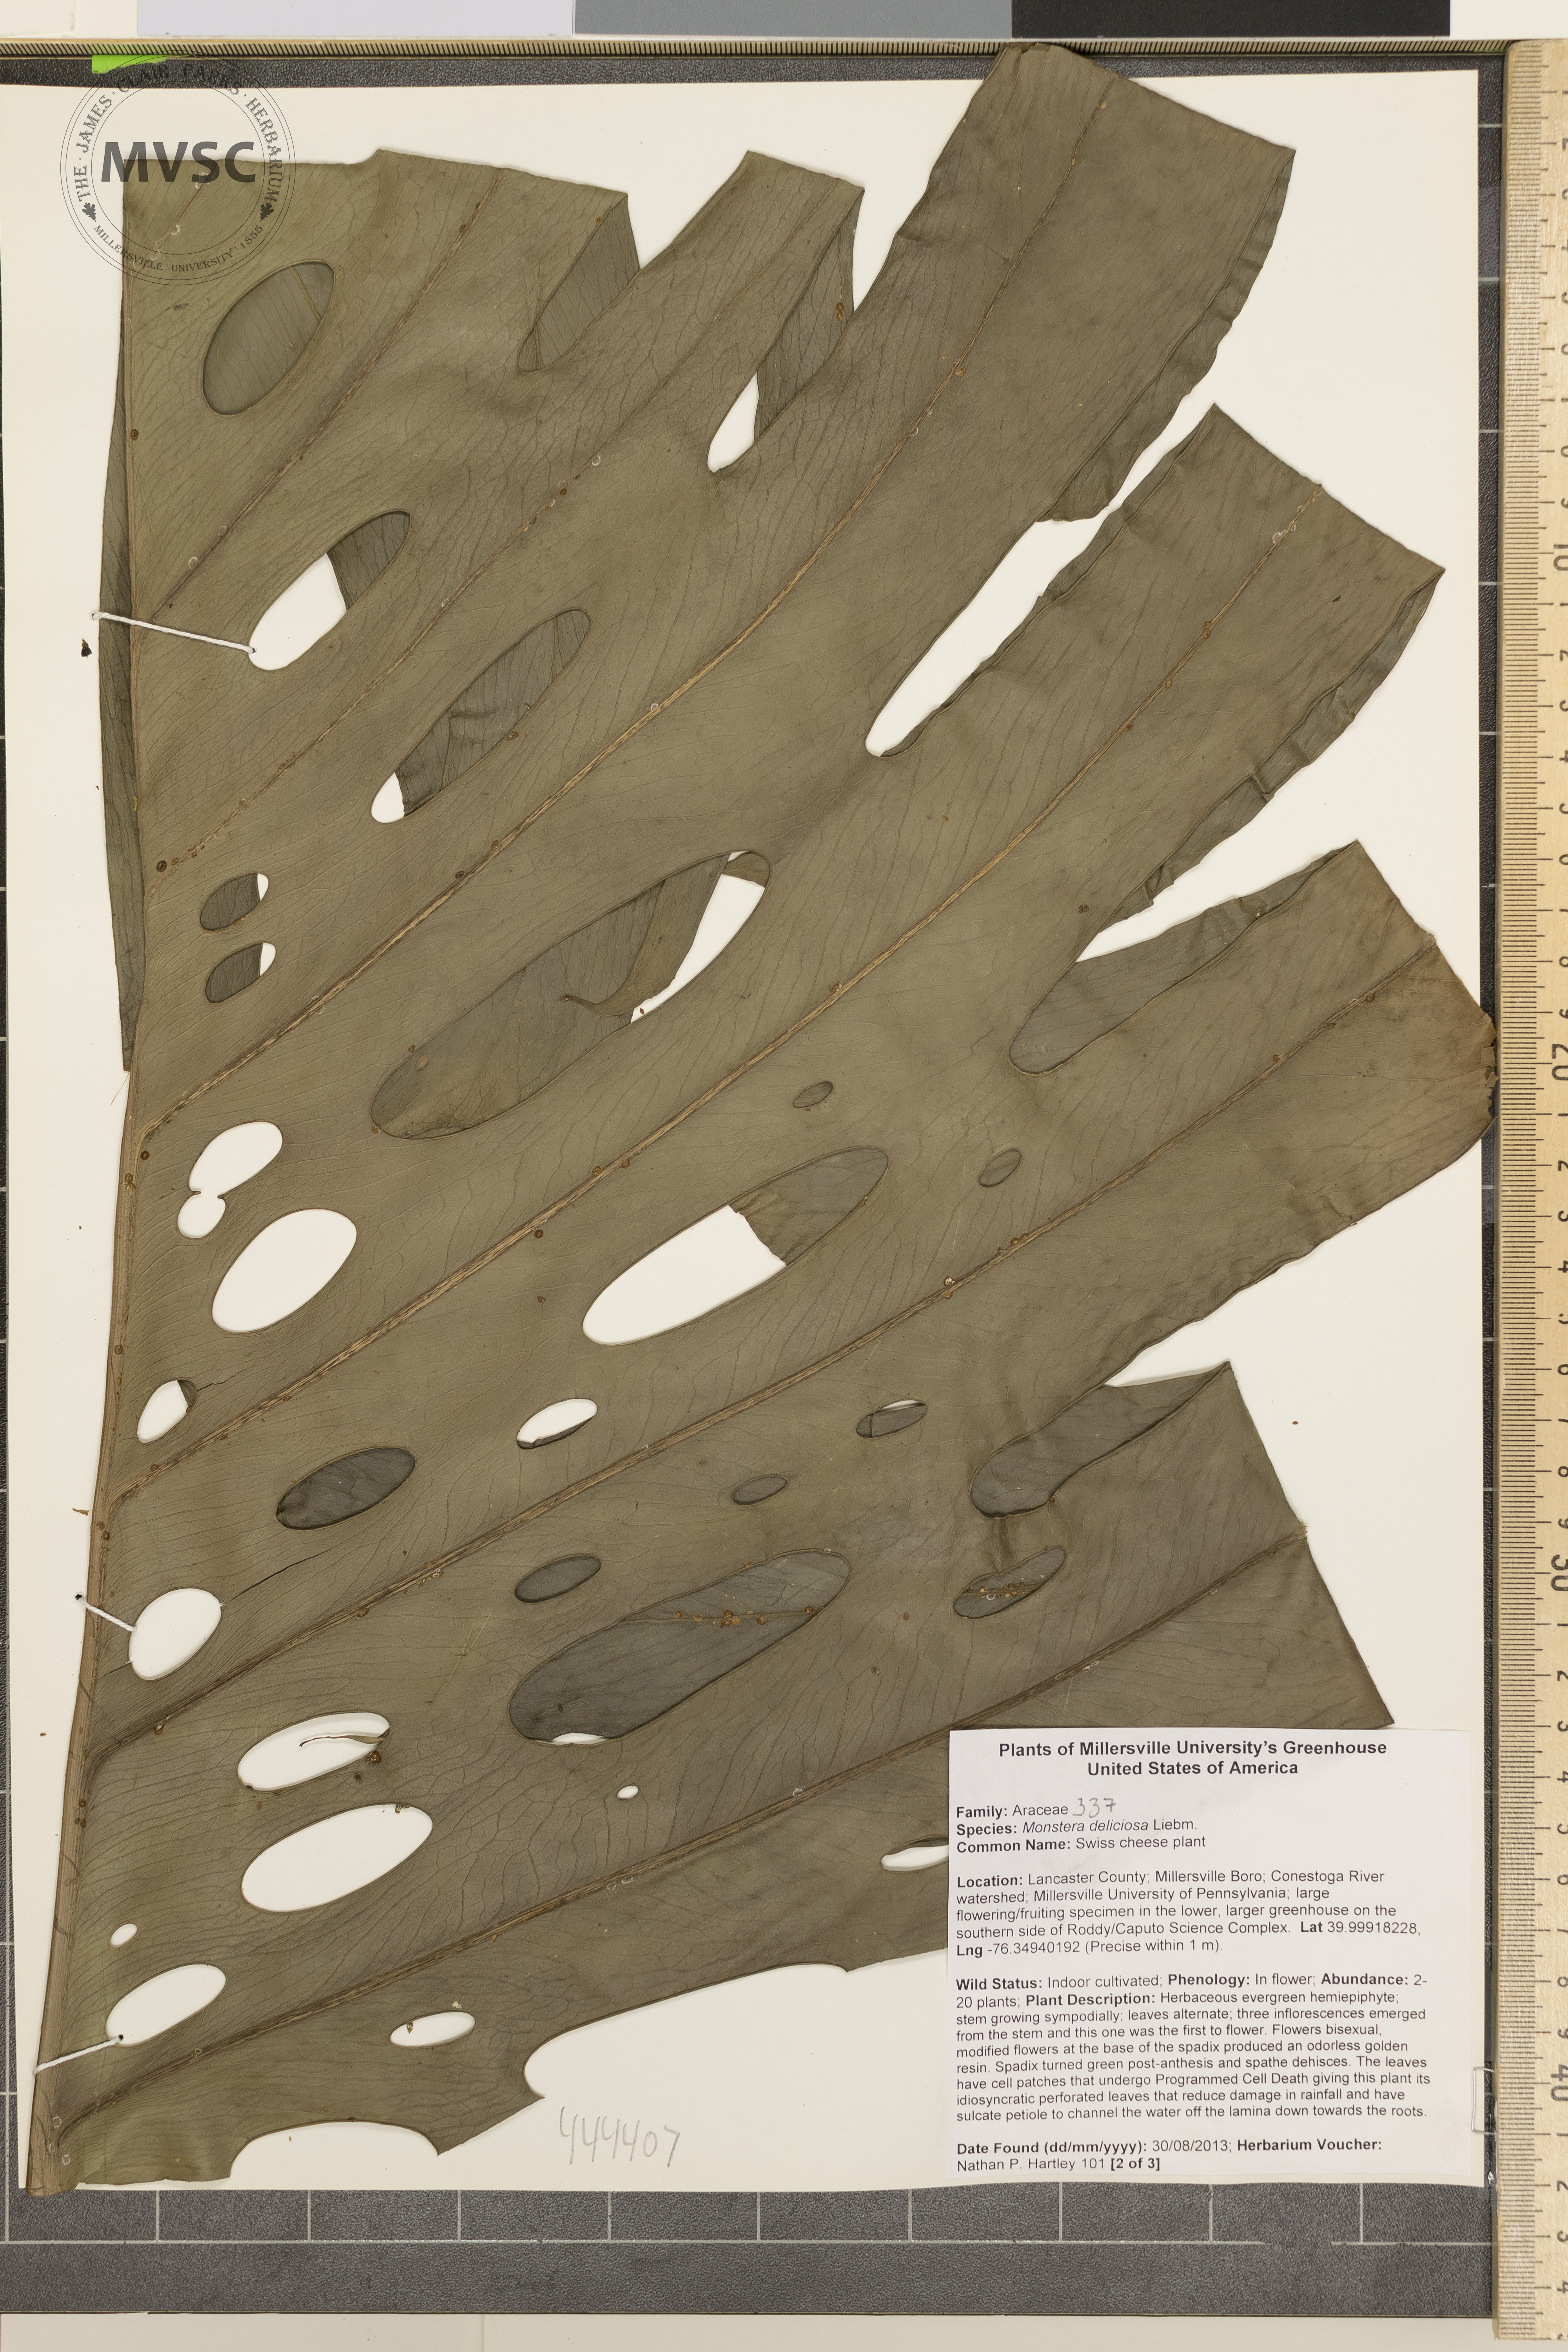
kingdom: Plantae
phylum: Tracheophyta
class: Liliopsida
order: Alismatales
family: Araceae
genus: Monstera
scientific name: Monstera deliciosa
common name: Swiss cheese plant
